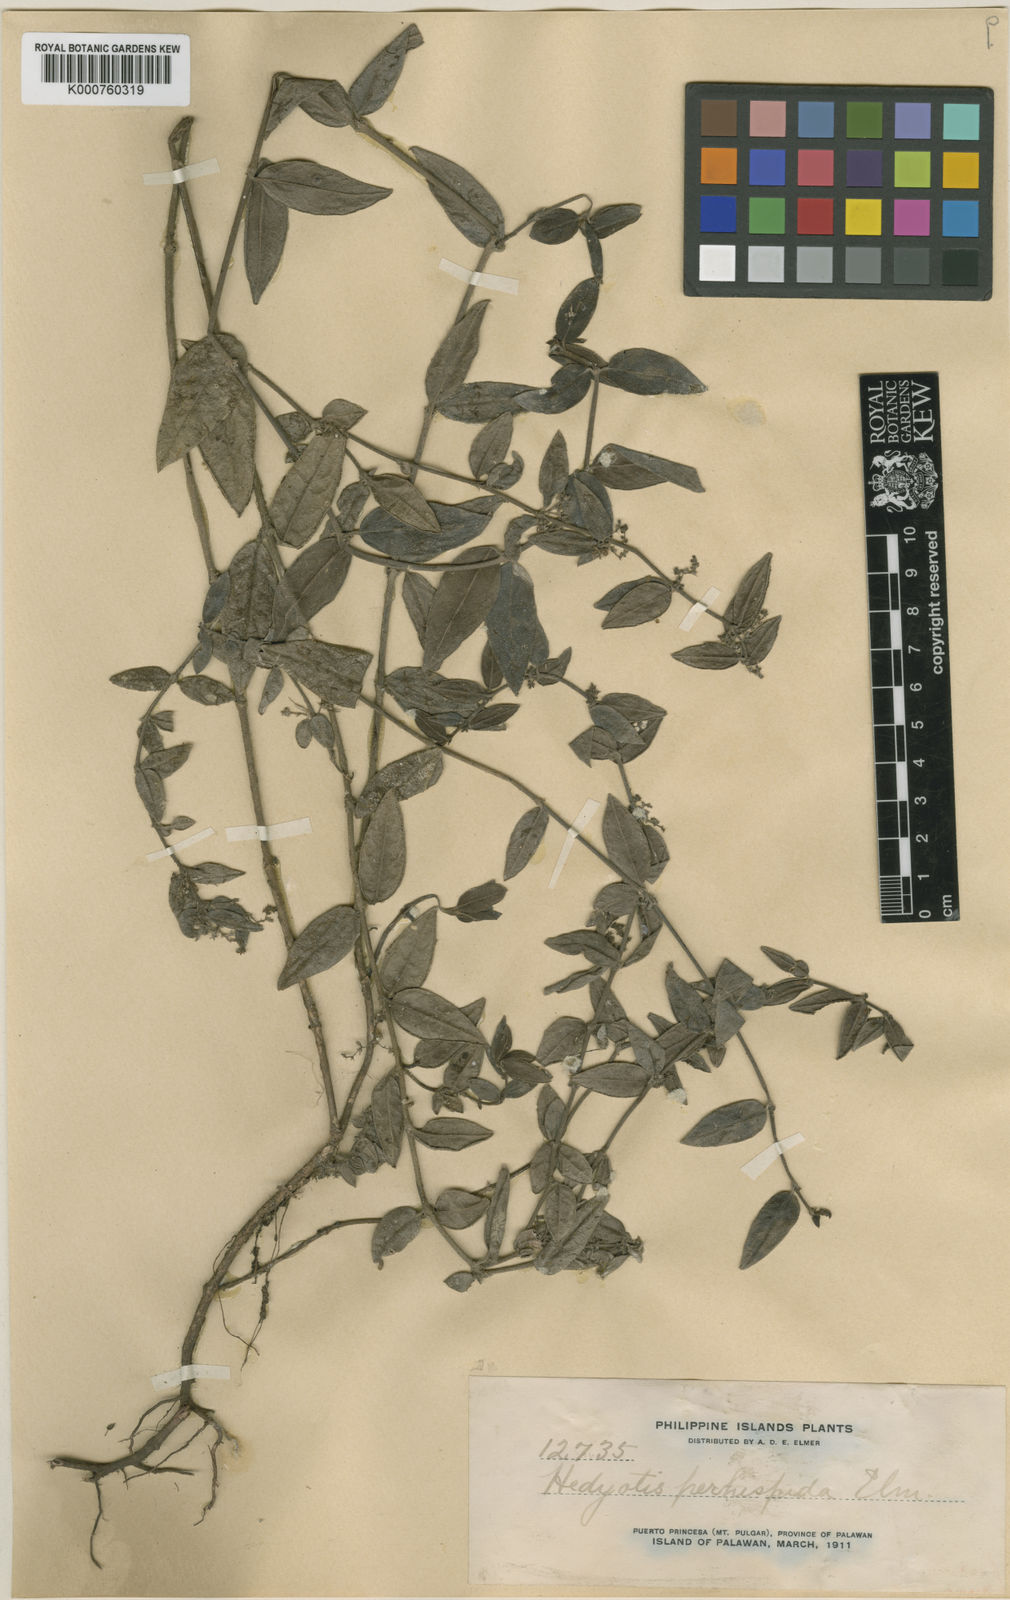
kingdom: Plantae
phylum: Tracheophyta
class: Magnoliopsida
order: Gentianales
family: Rubiaceae
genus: Exallage
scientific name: Exallage perhispida
